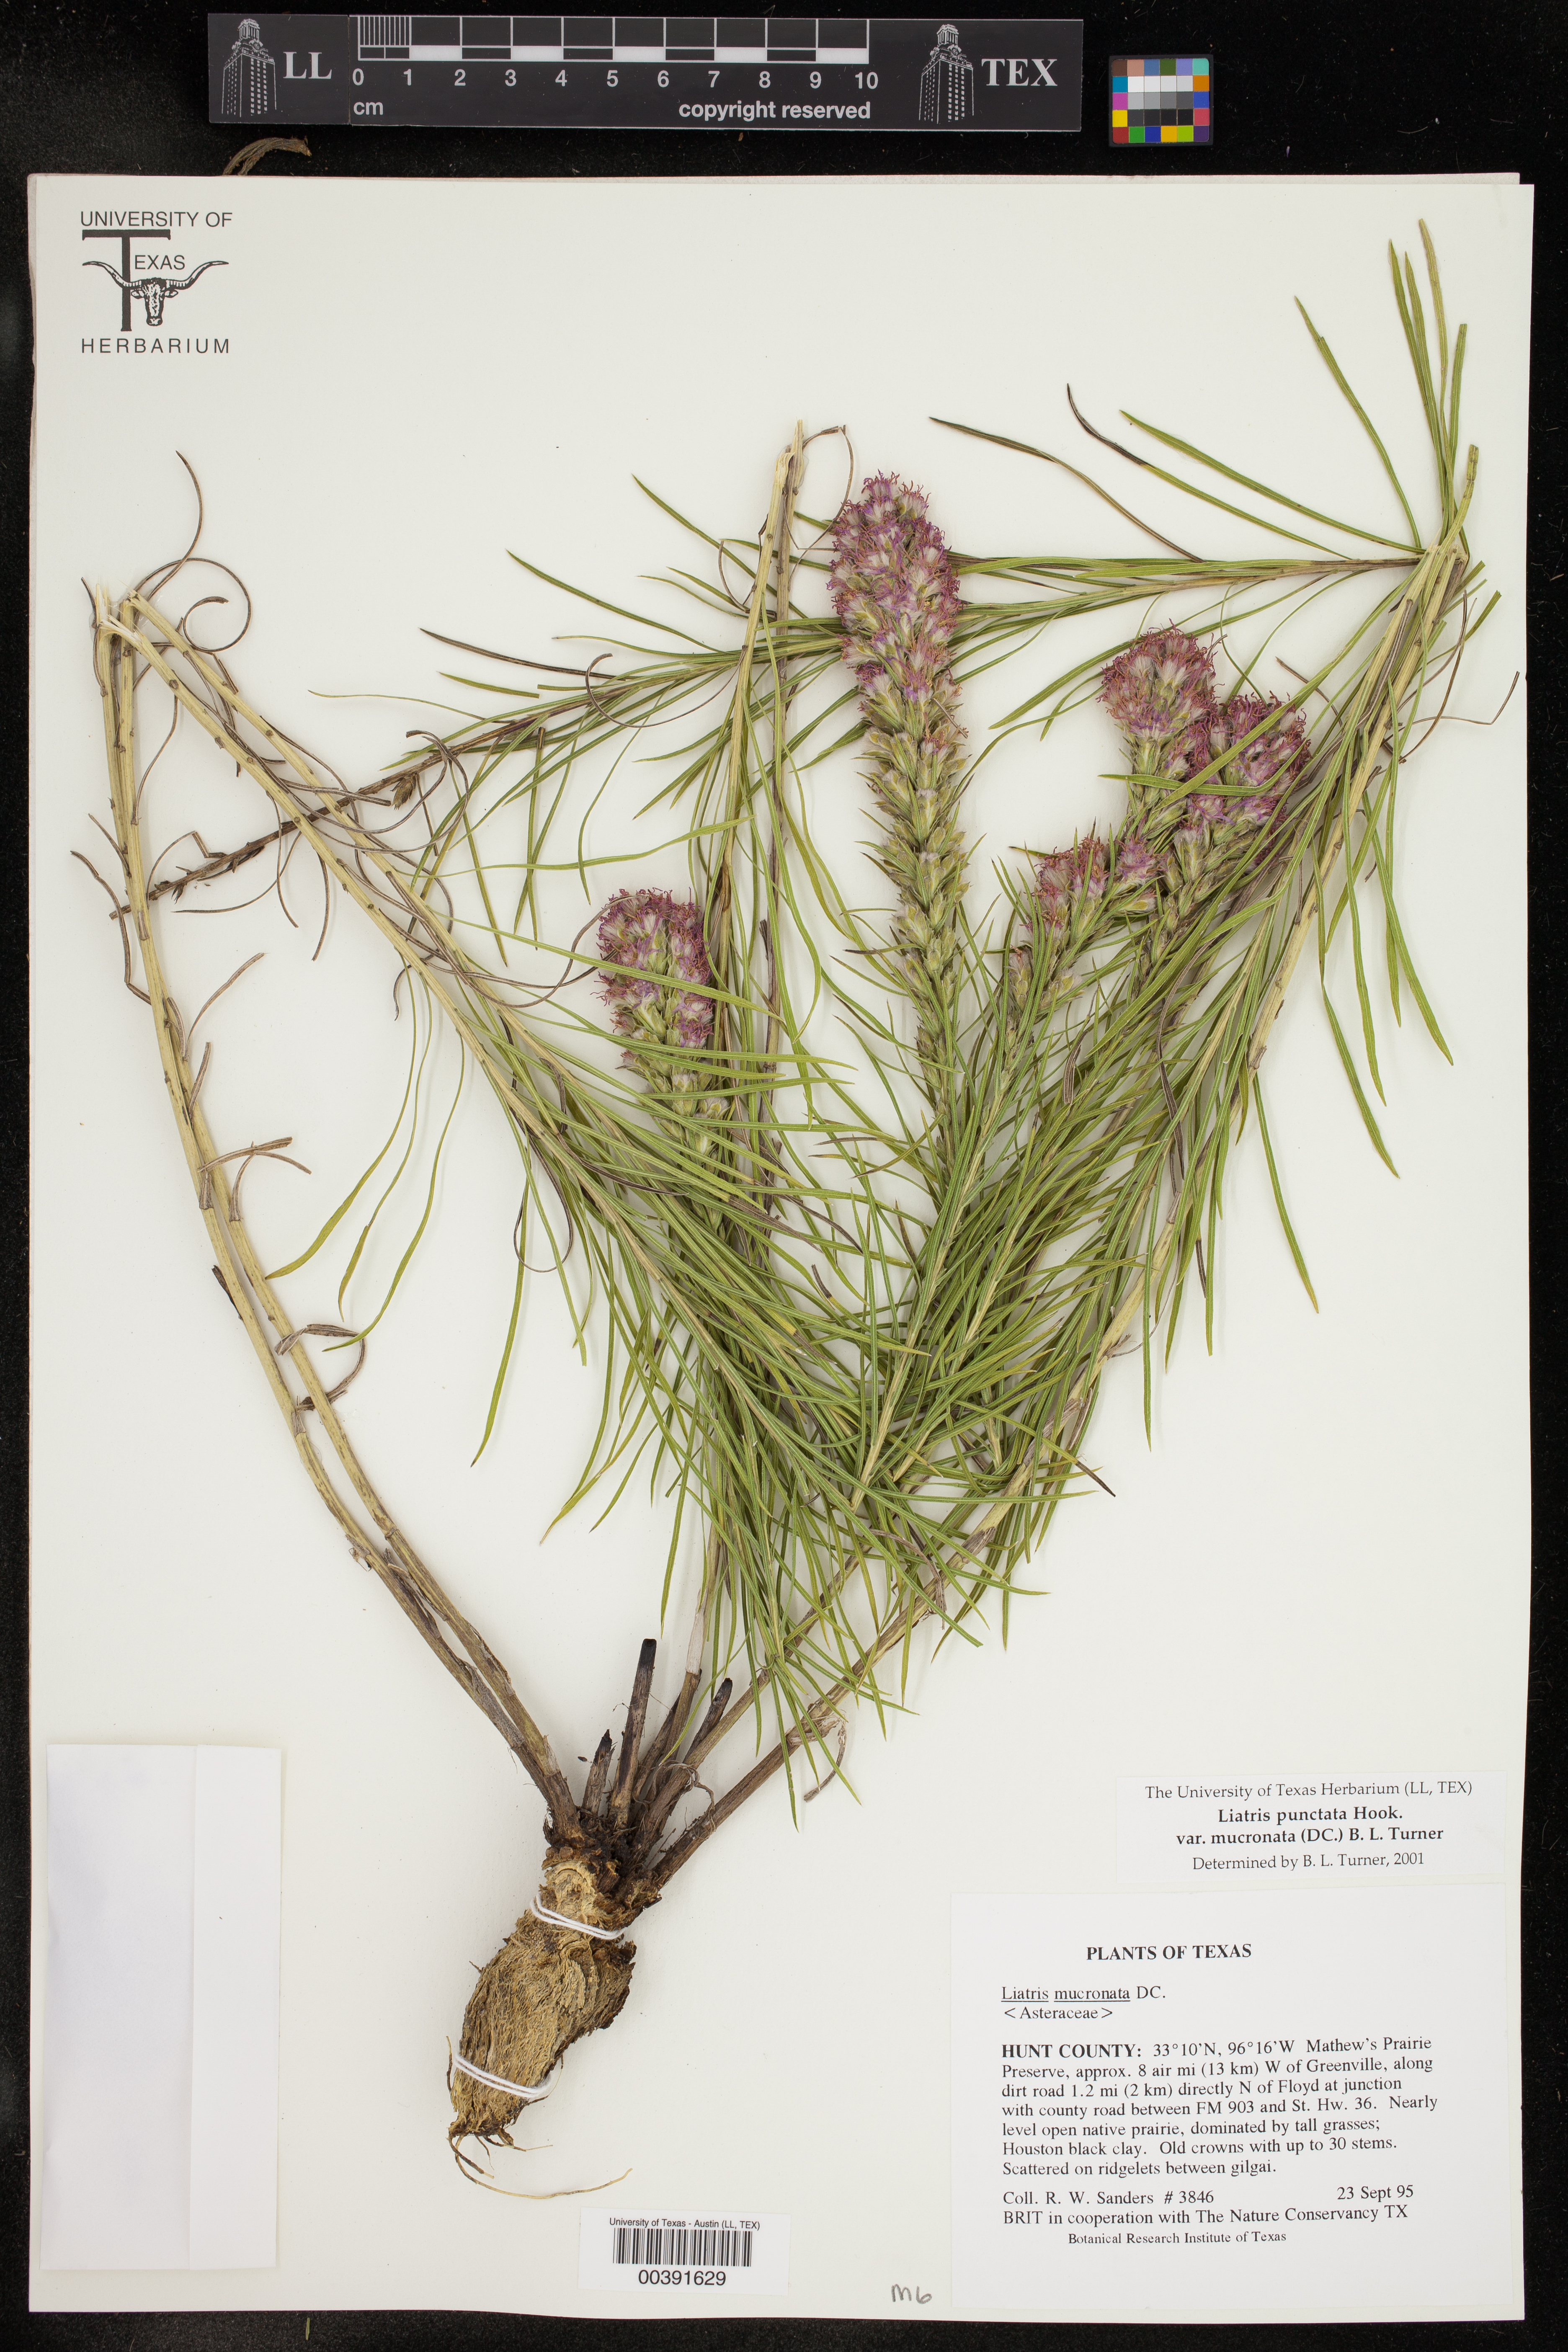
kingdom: Plantae
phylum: Tracheophyta
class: Magnoliopsida
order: Asterales
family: Asteraceae
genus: Liatris
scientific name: Liatris punctata
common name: Dotted gayfeather
